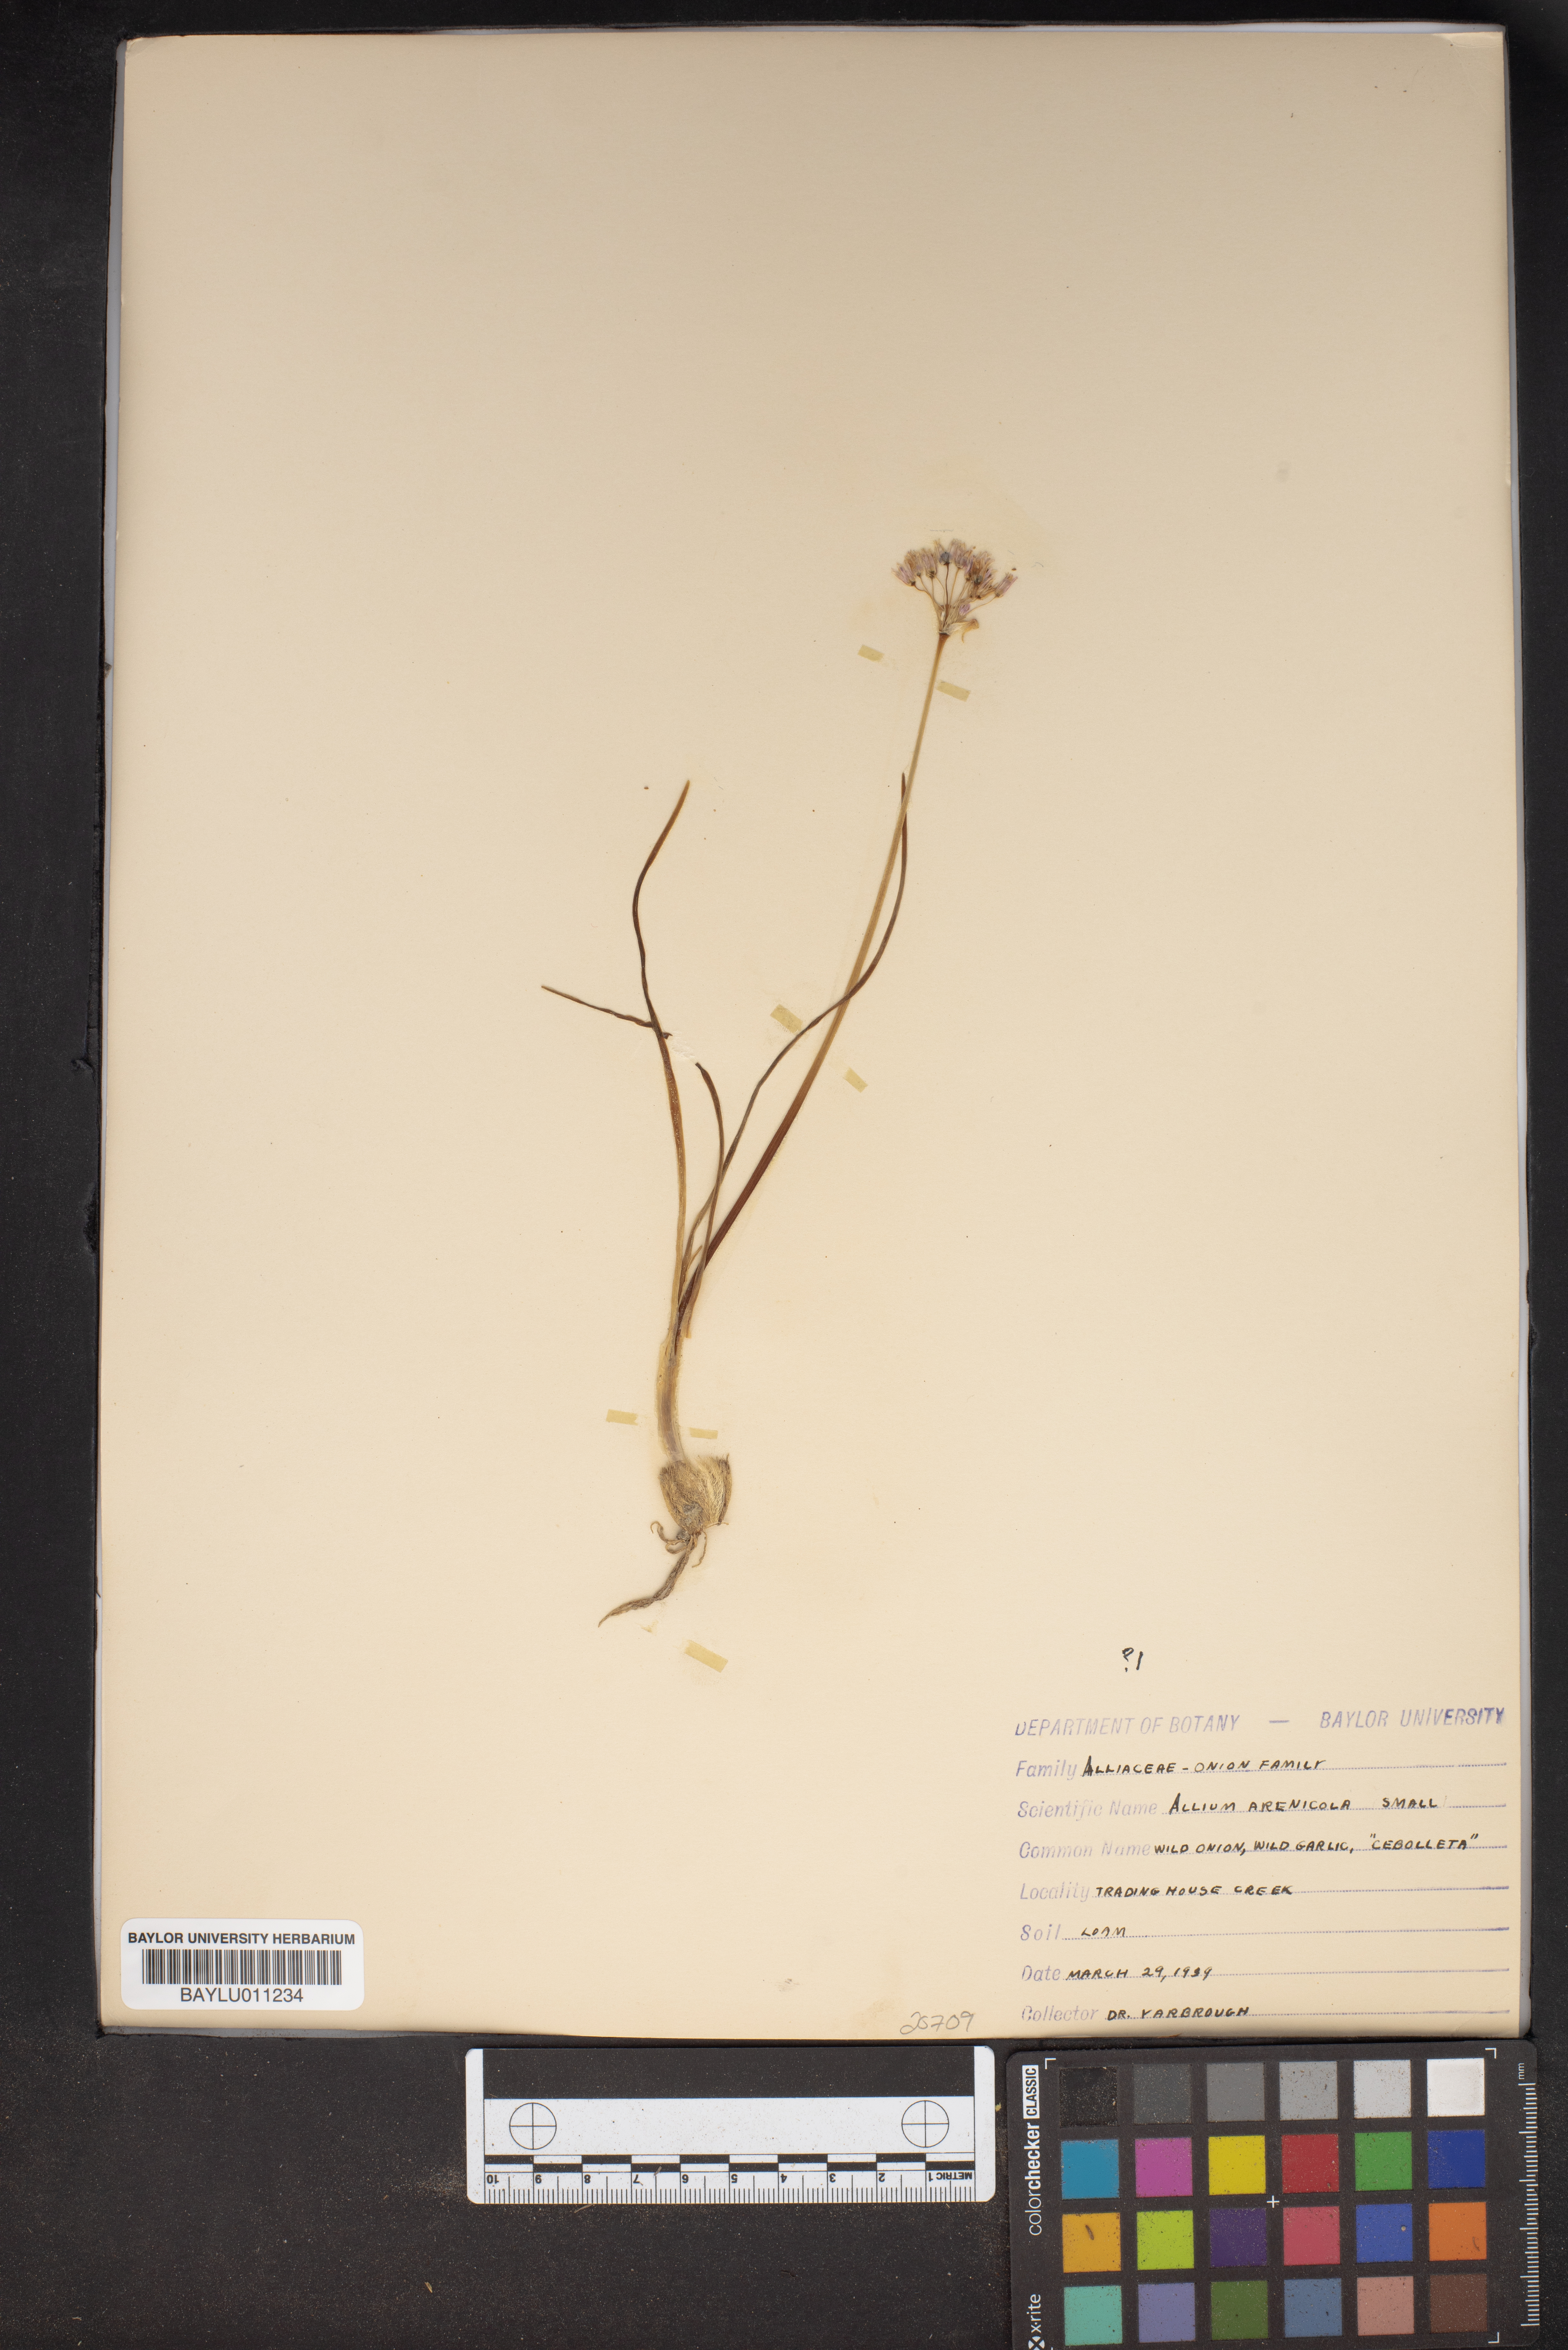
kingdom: Plantae
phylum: Tracheophyta
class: Liliopsida
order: Asparagales
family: Amaryllidaceae
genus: Allium
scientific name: Allium geyeri
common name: Geyer's onion
